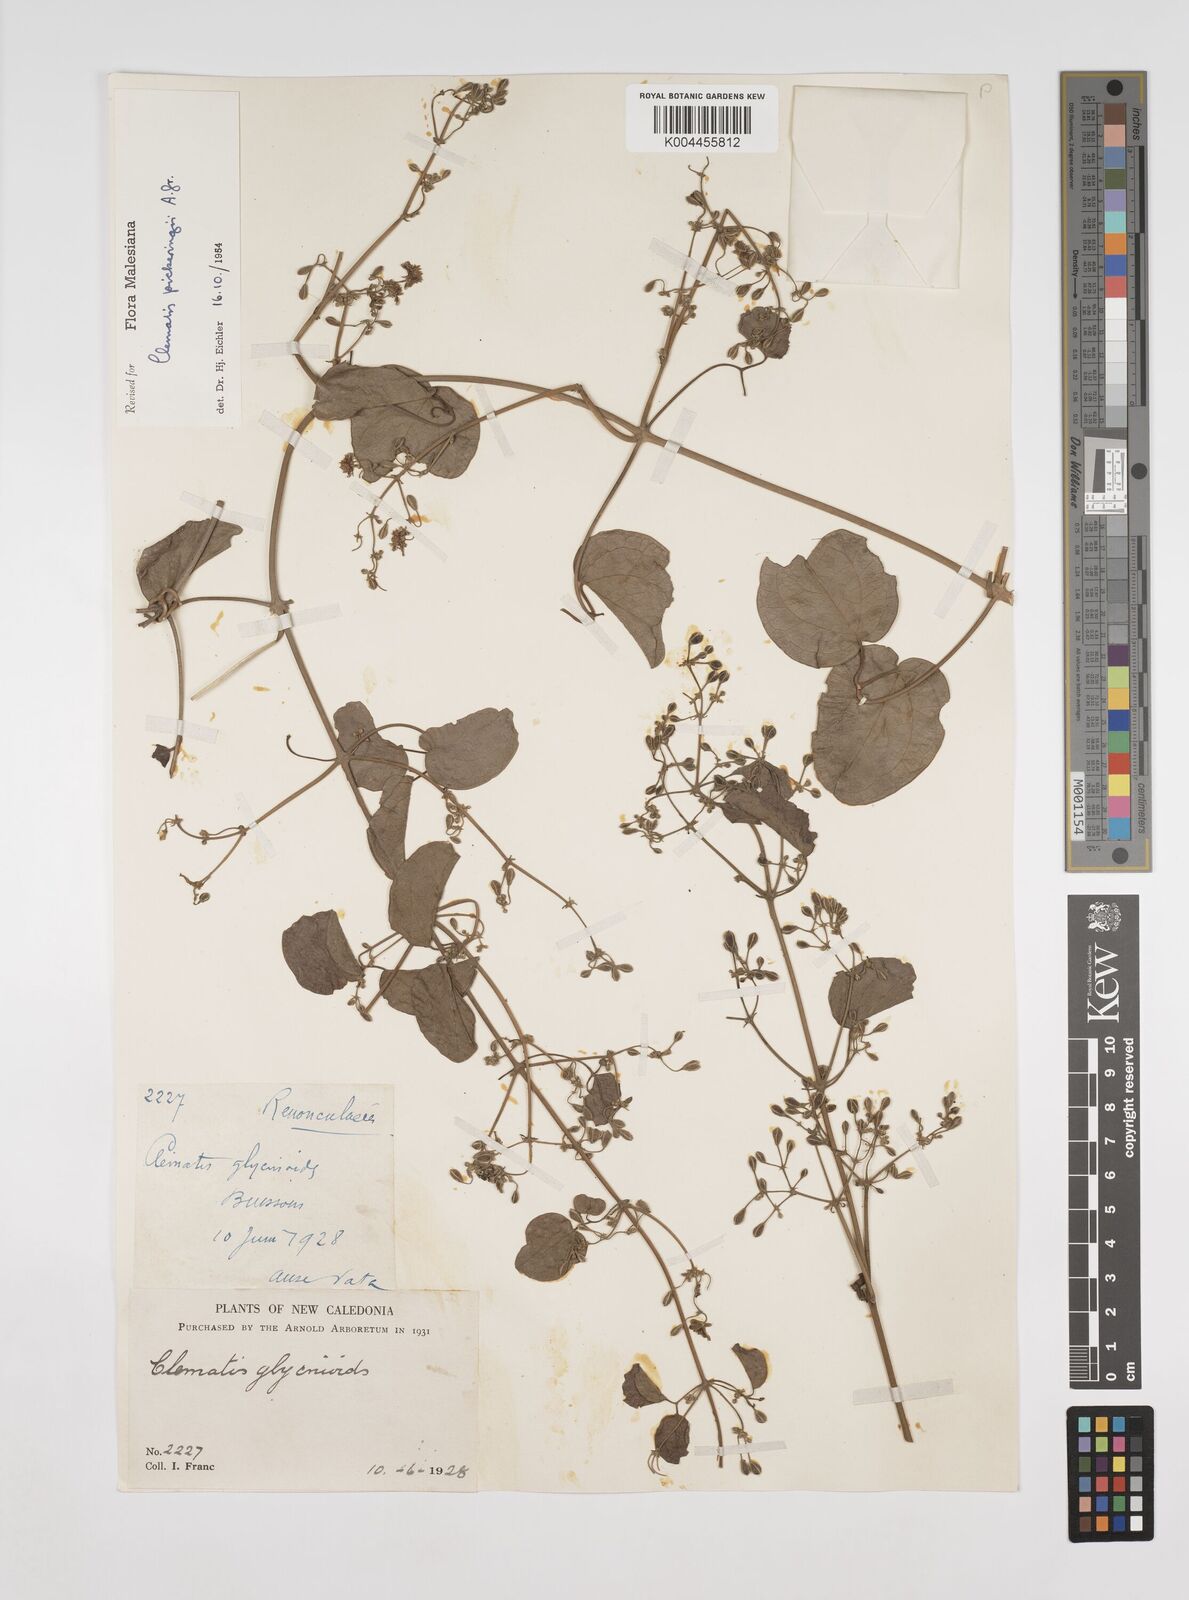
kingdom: Plantae
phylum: Tracheophyta
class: Magnoliopsida
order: Ranunculales
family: Ranunculaceae
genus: Clematis
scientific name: Clematis pickeringii
